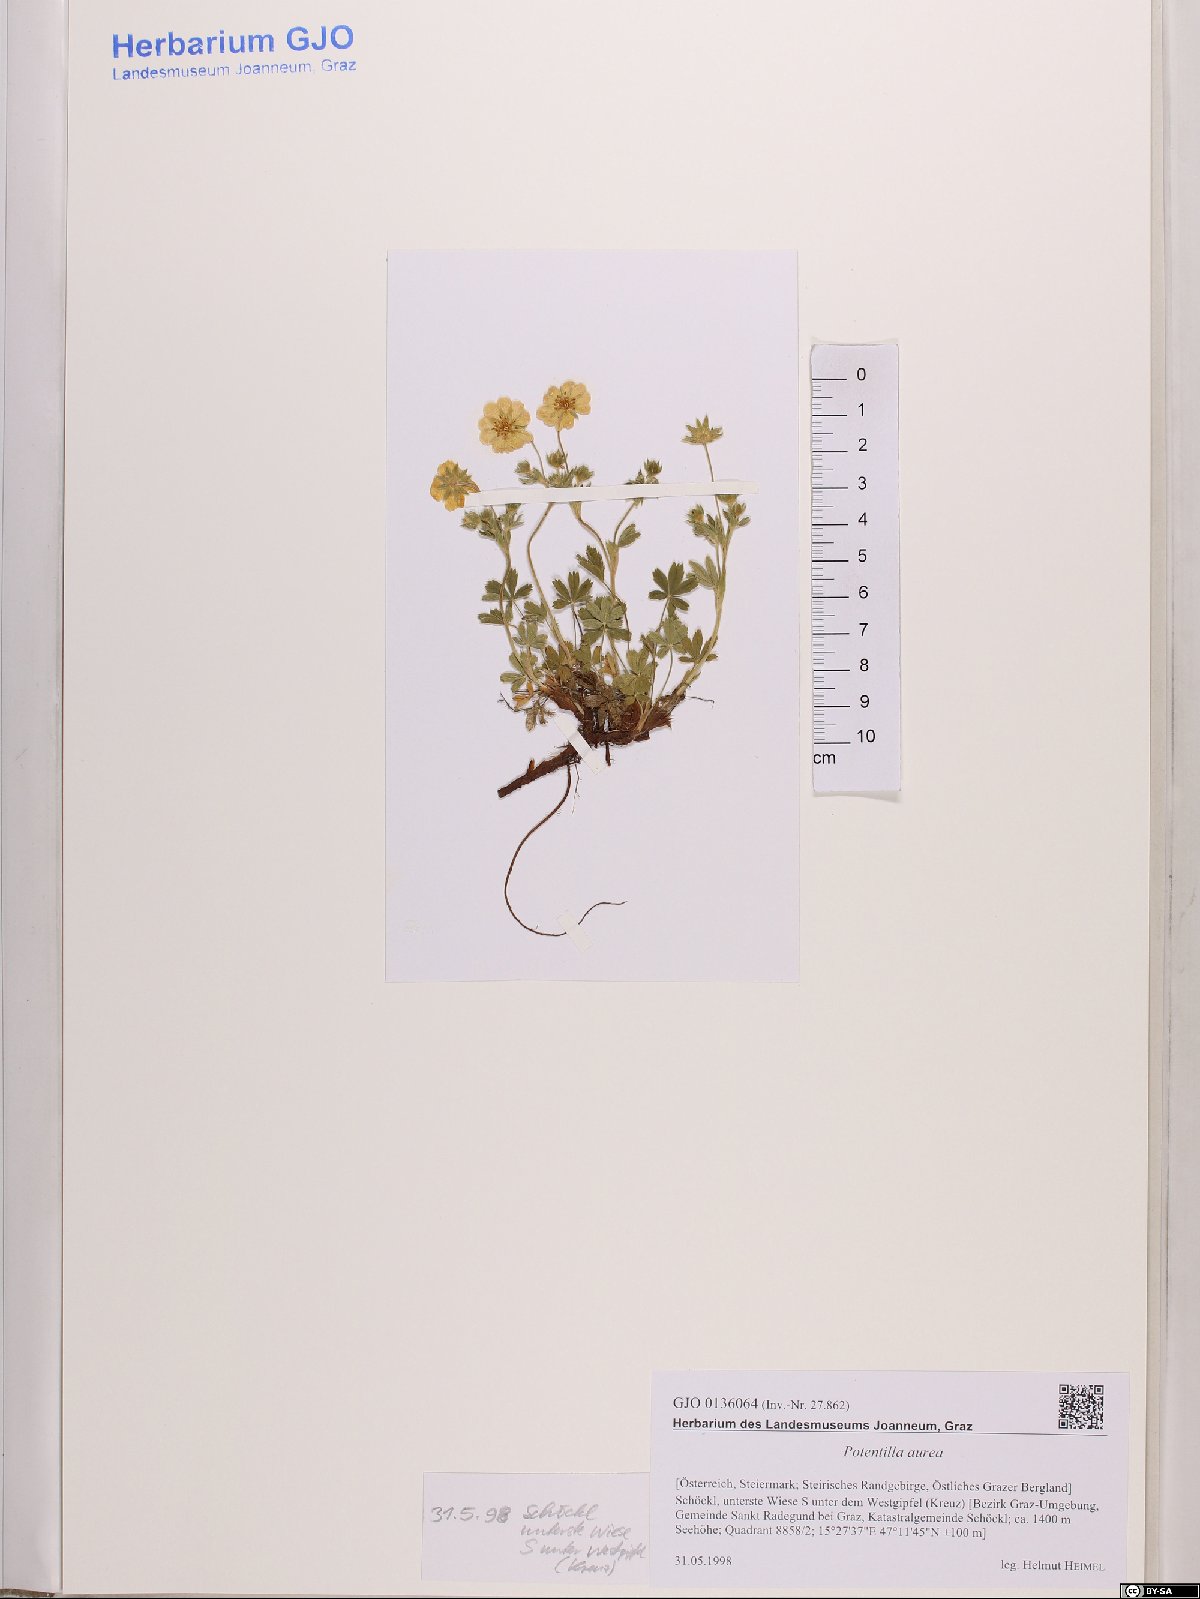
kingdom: Plantae
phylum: Tracheophyta
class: Magnoliopsida
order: Rosales
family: Rosaceae
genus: Potentilla
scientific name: Potentilla aurea
